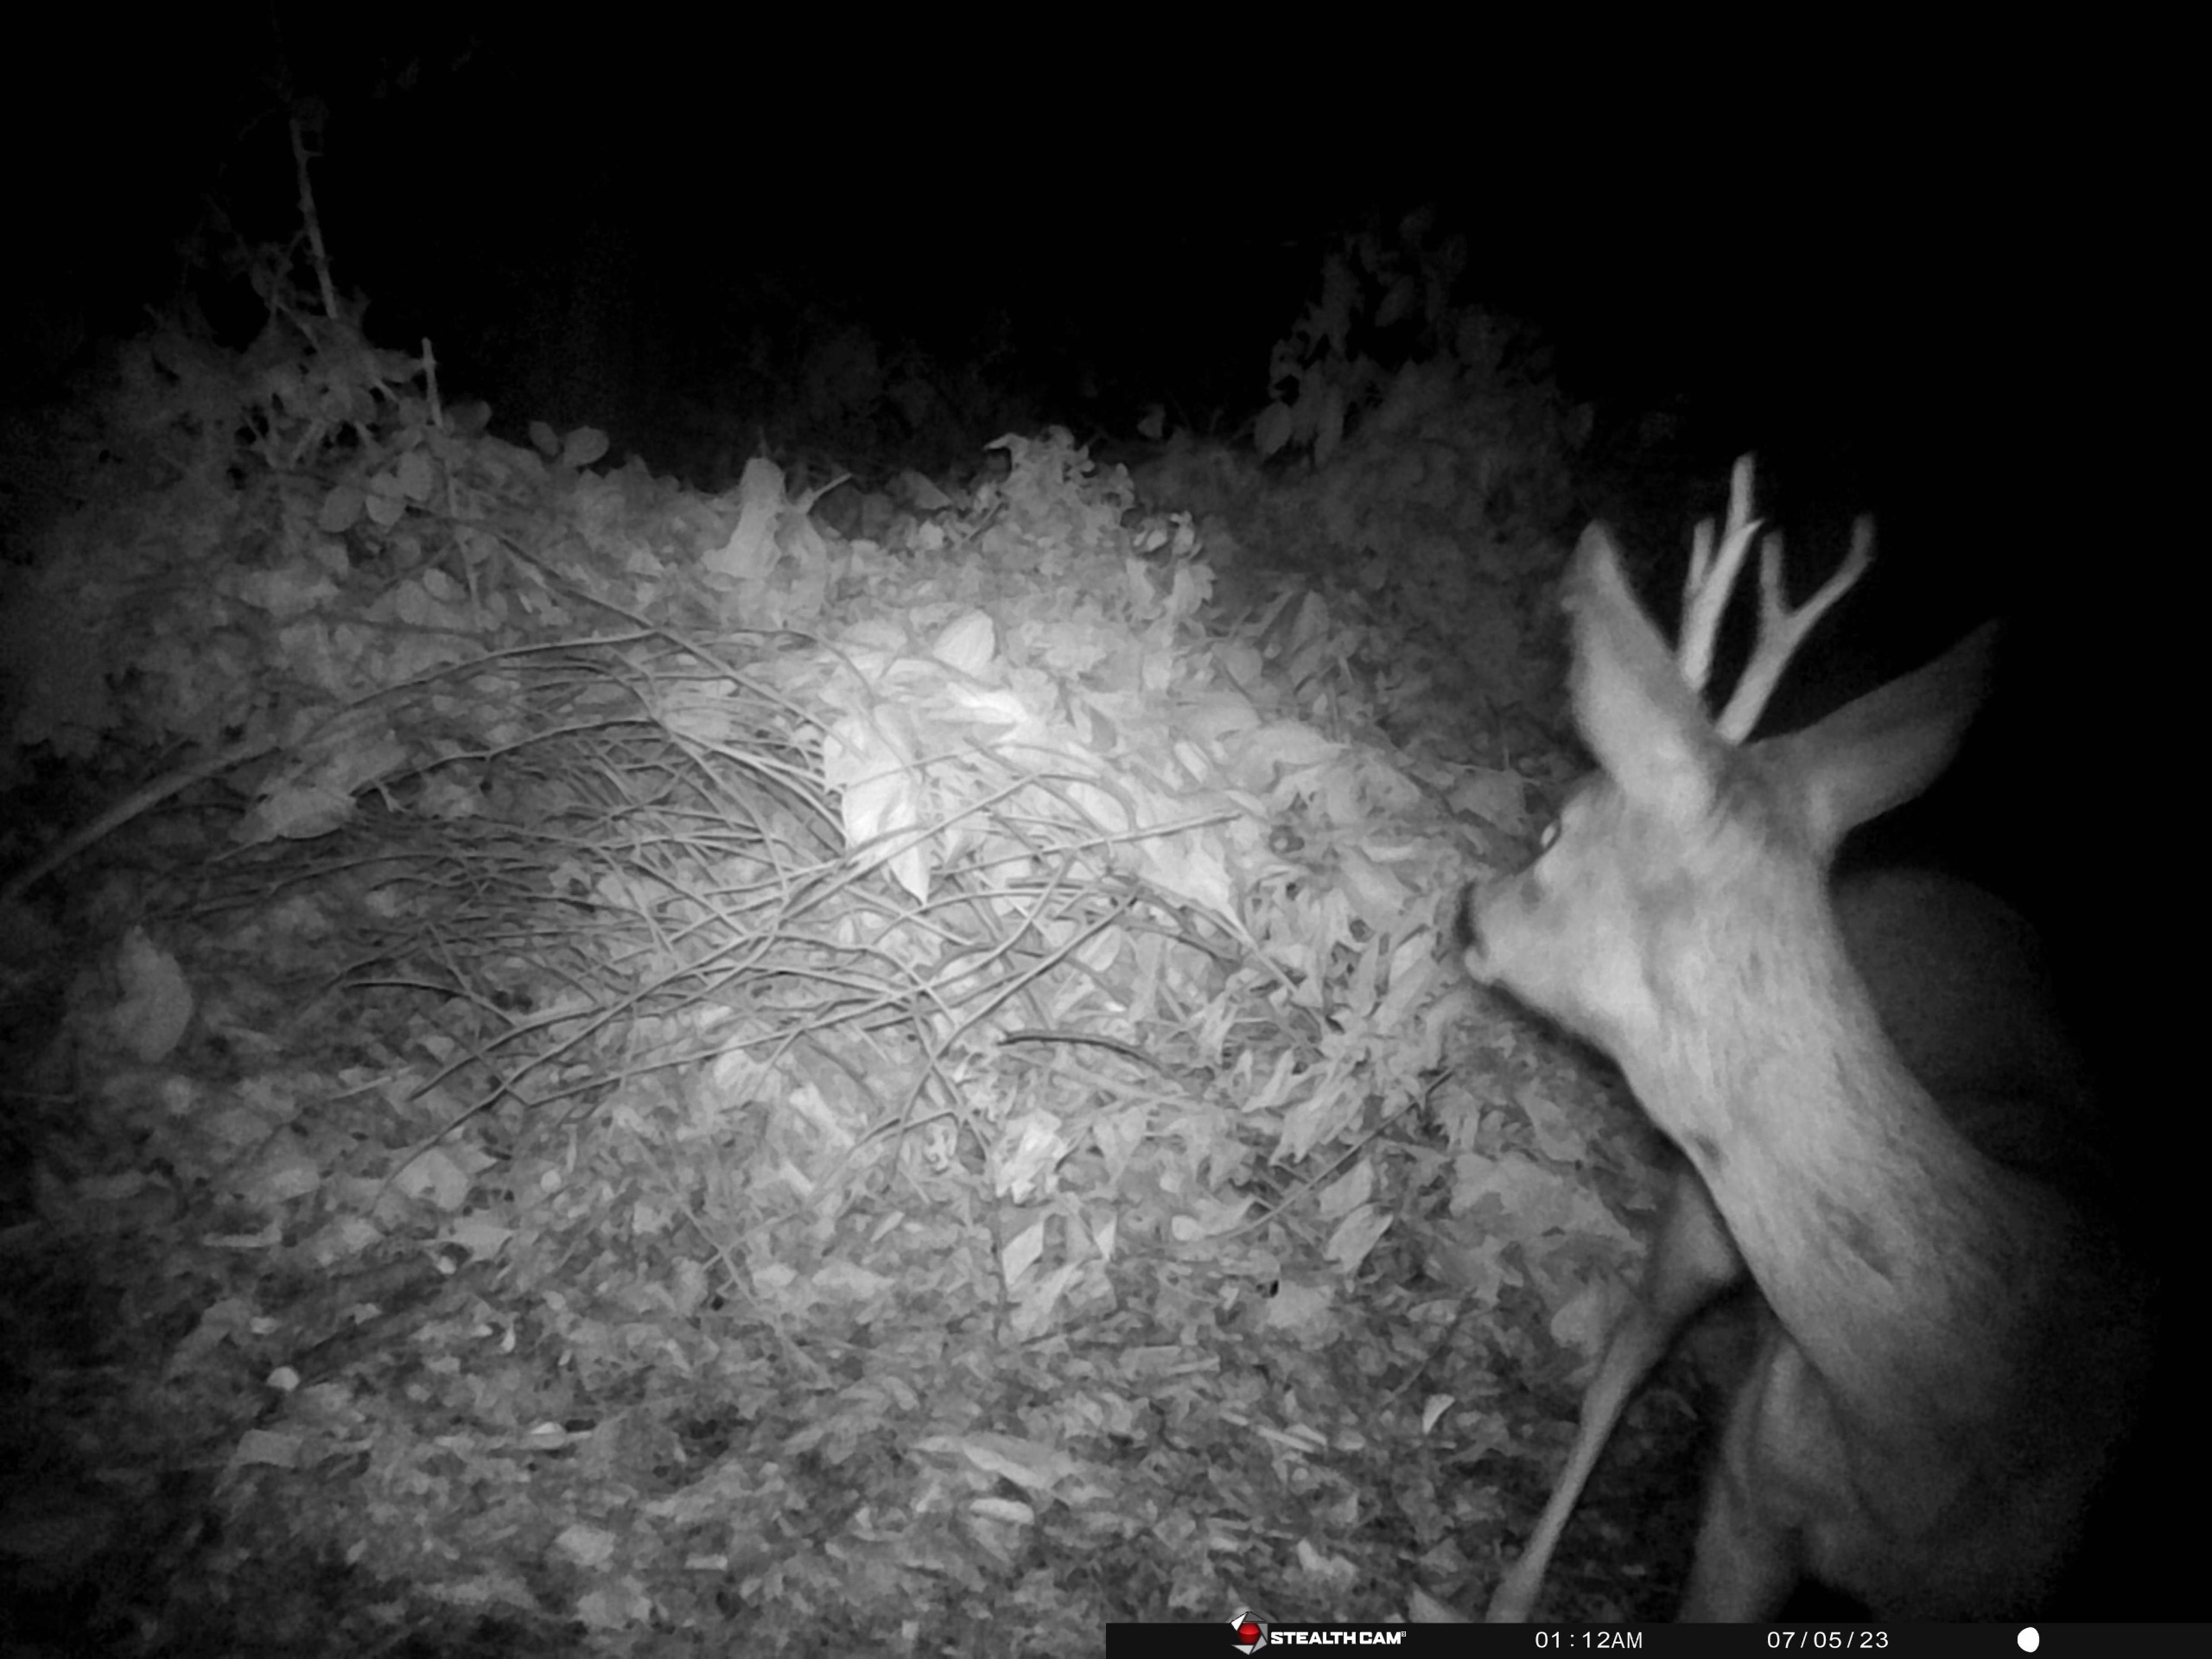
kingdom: Animalia
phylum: Chordata
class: Mammalia
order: Artiodactyla
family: Cervidae
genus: Capreolus
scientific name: Capreolus capreolus
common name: Rådyr
